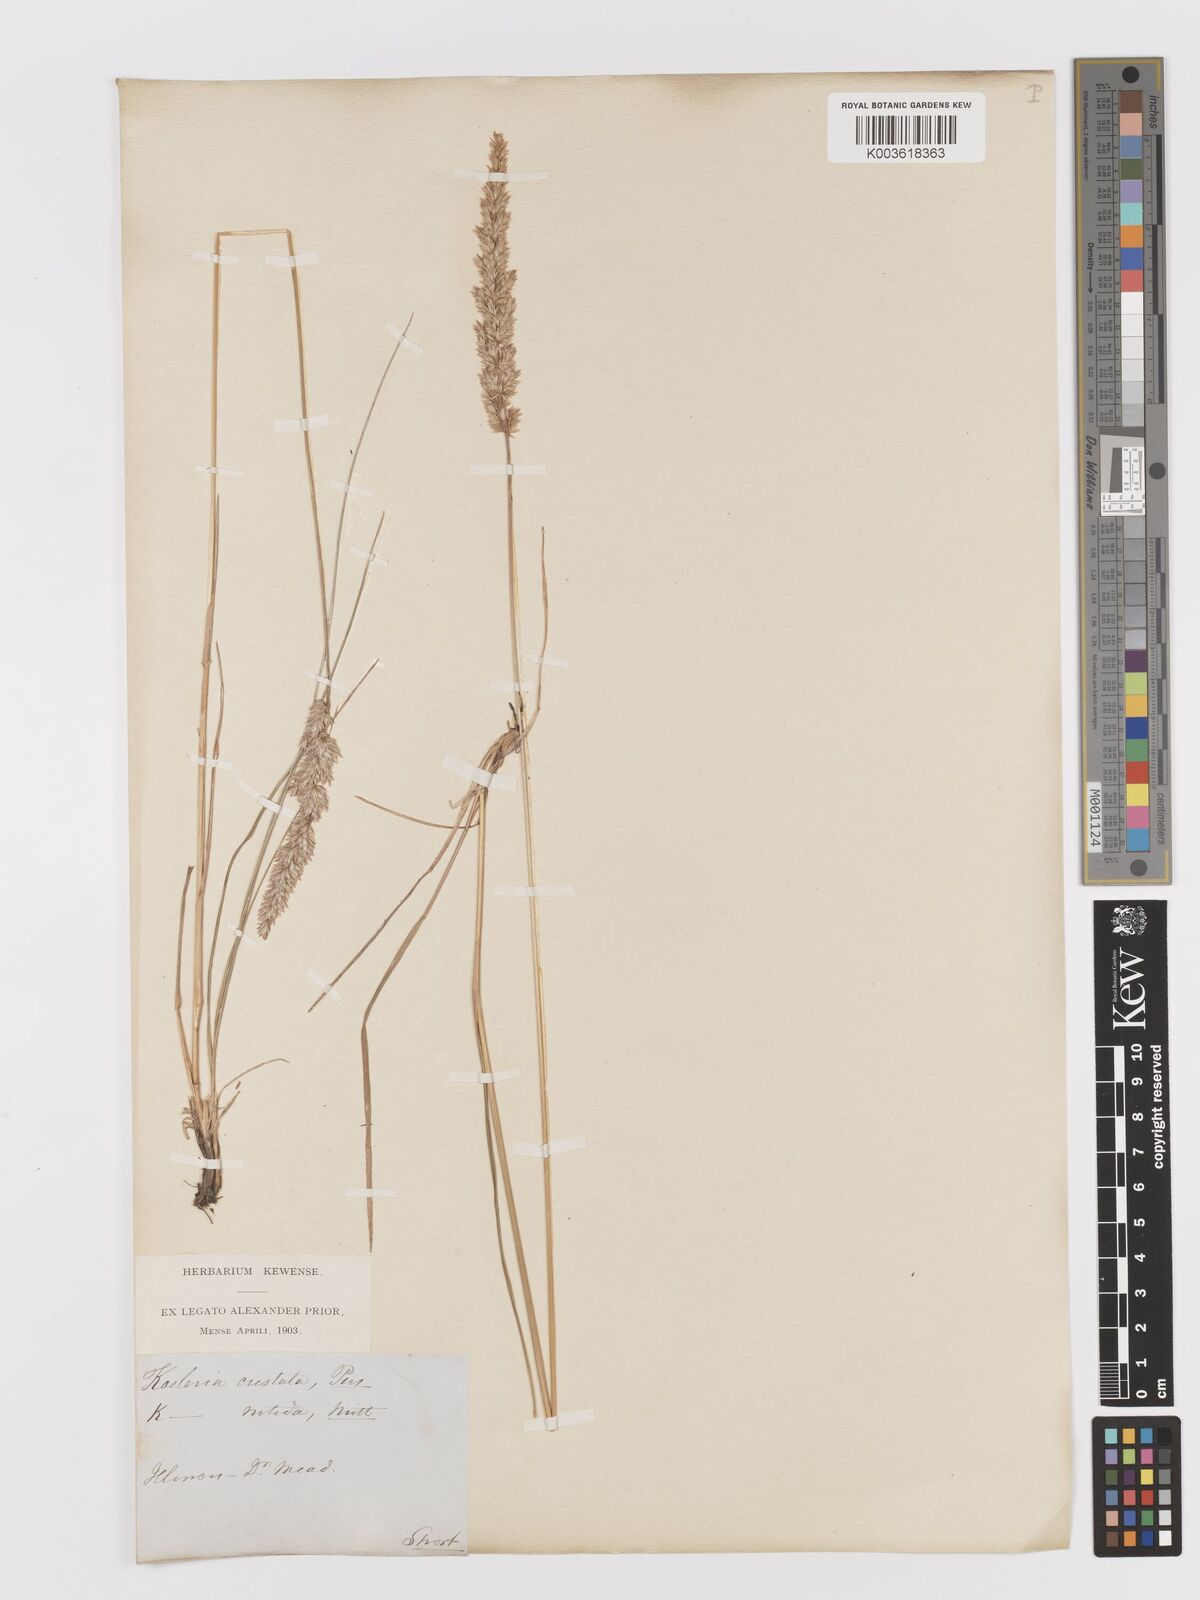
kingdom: Plantae
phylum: Tracheophyta
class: Liliopsida
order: Poales
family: Poaceae
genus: Koeleria
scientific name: Koeleria
